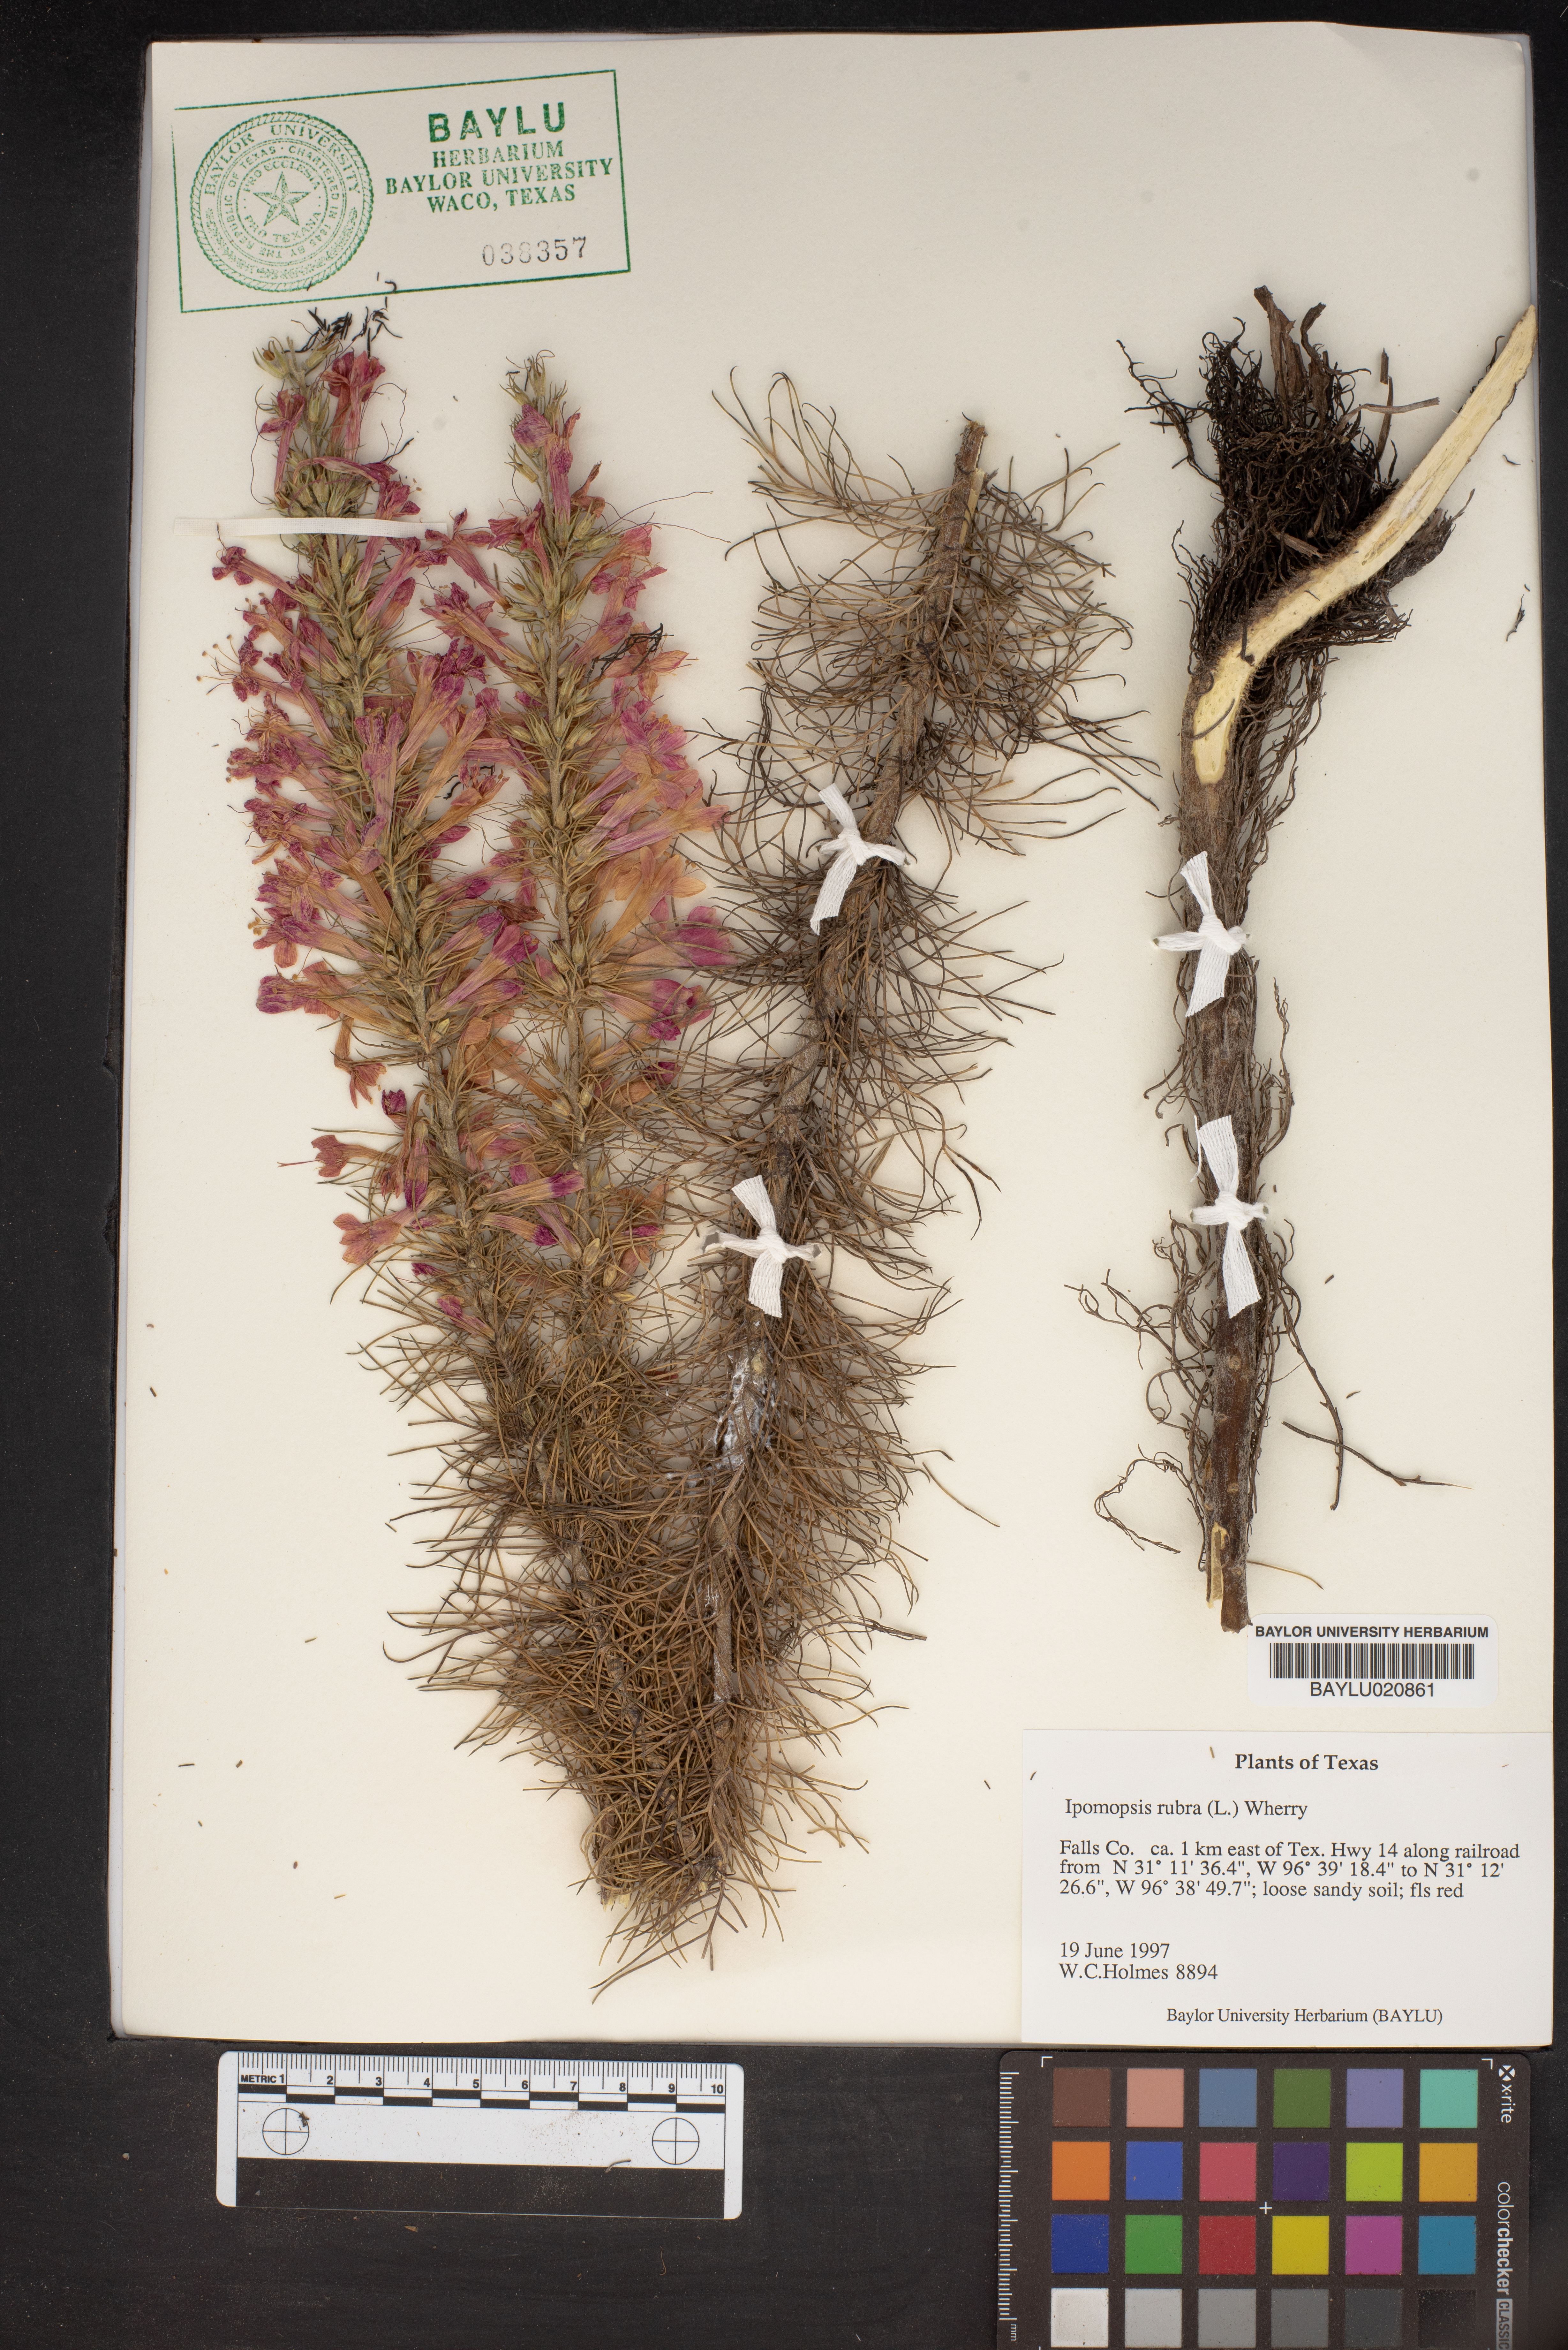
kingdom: Plantae
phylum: Tracheophyta
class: Magnoliopsida
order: Ericales
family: Polemoniaceae
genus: Ipomopsis
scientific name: Ipomopsis rubra
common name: Skyrocket
